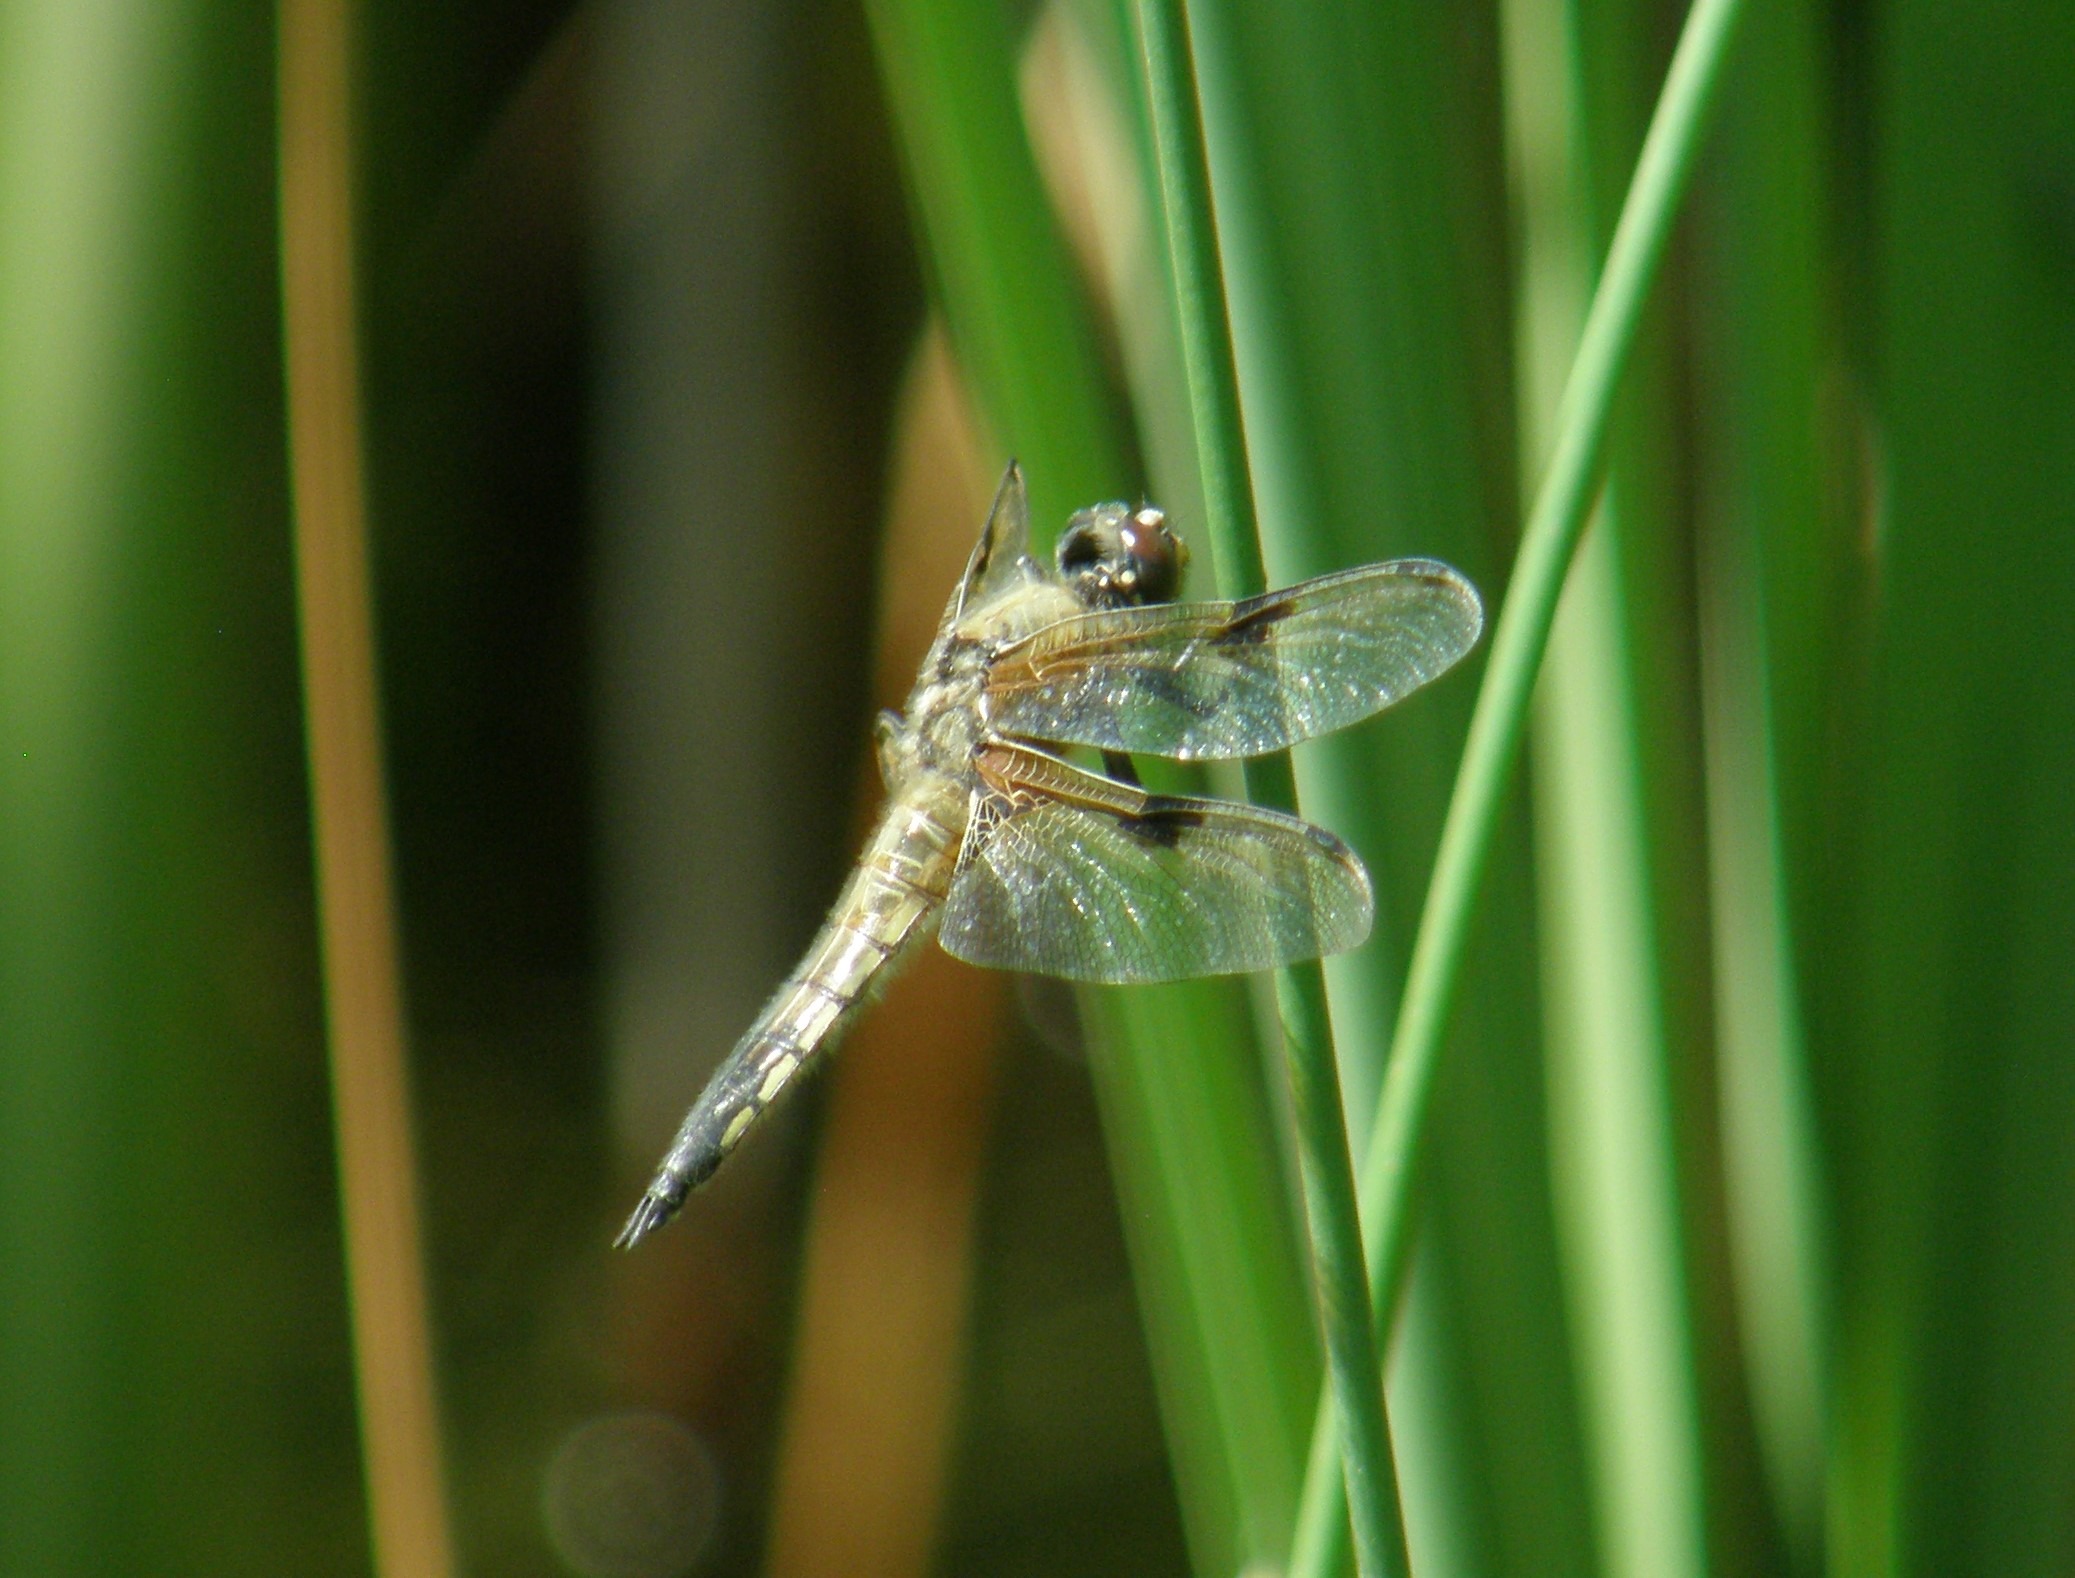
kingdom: Animalia
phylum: Arthropoda
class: Insecta
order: Odonata
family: Libellulidae
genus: Libellula
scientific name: Libellula quadrimaculata
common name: Fireplettet libel
